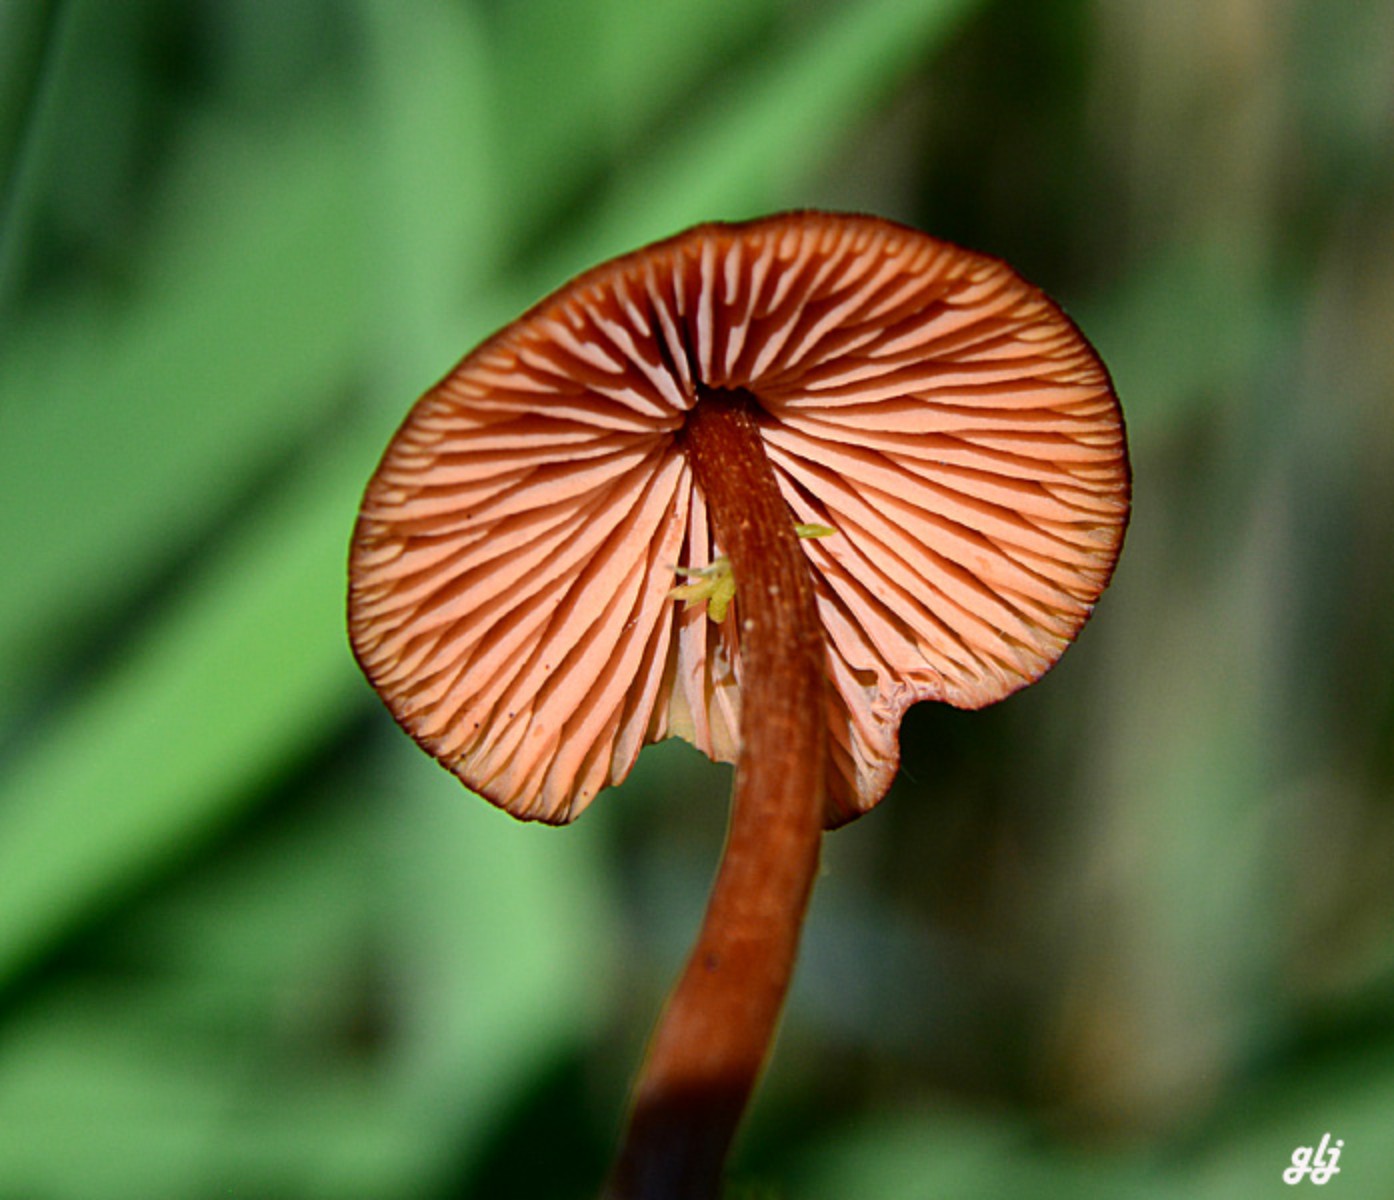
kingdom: Fungi
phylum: Basidiomycota
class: Agaricomycetes
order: Agaricales
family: Hydnangiaceae
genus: Laccaria
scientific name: Laccaria proxima
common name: stor ametysthat
